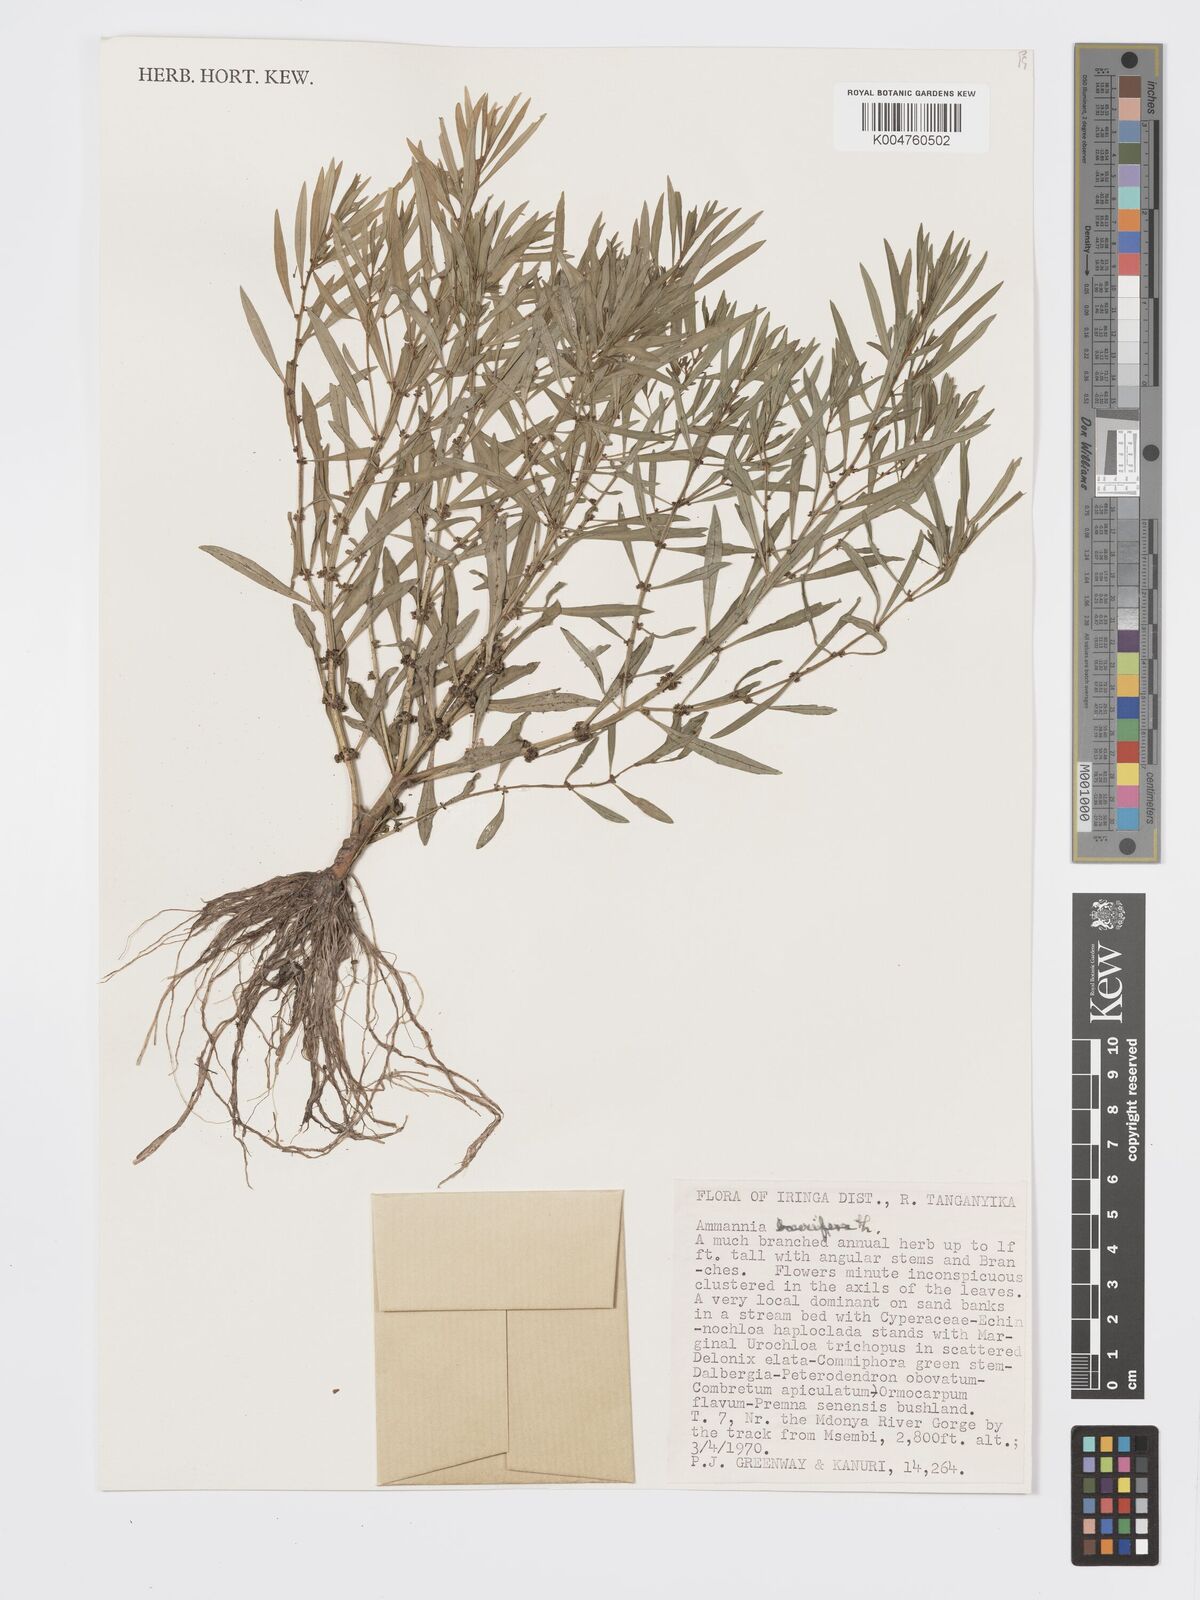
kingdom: Plantae
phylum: Tracheophyta
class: Magnoliopsida
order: Myrtales
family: Lythraceae
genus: Ammannia
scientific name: Ammannia
